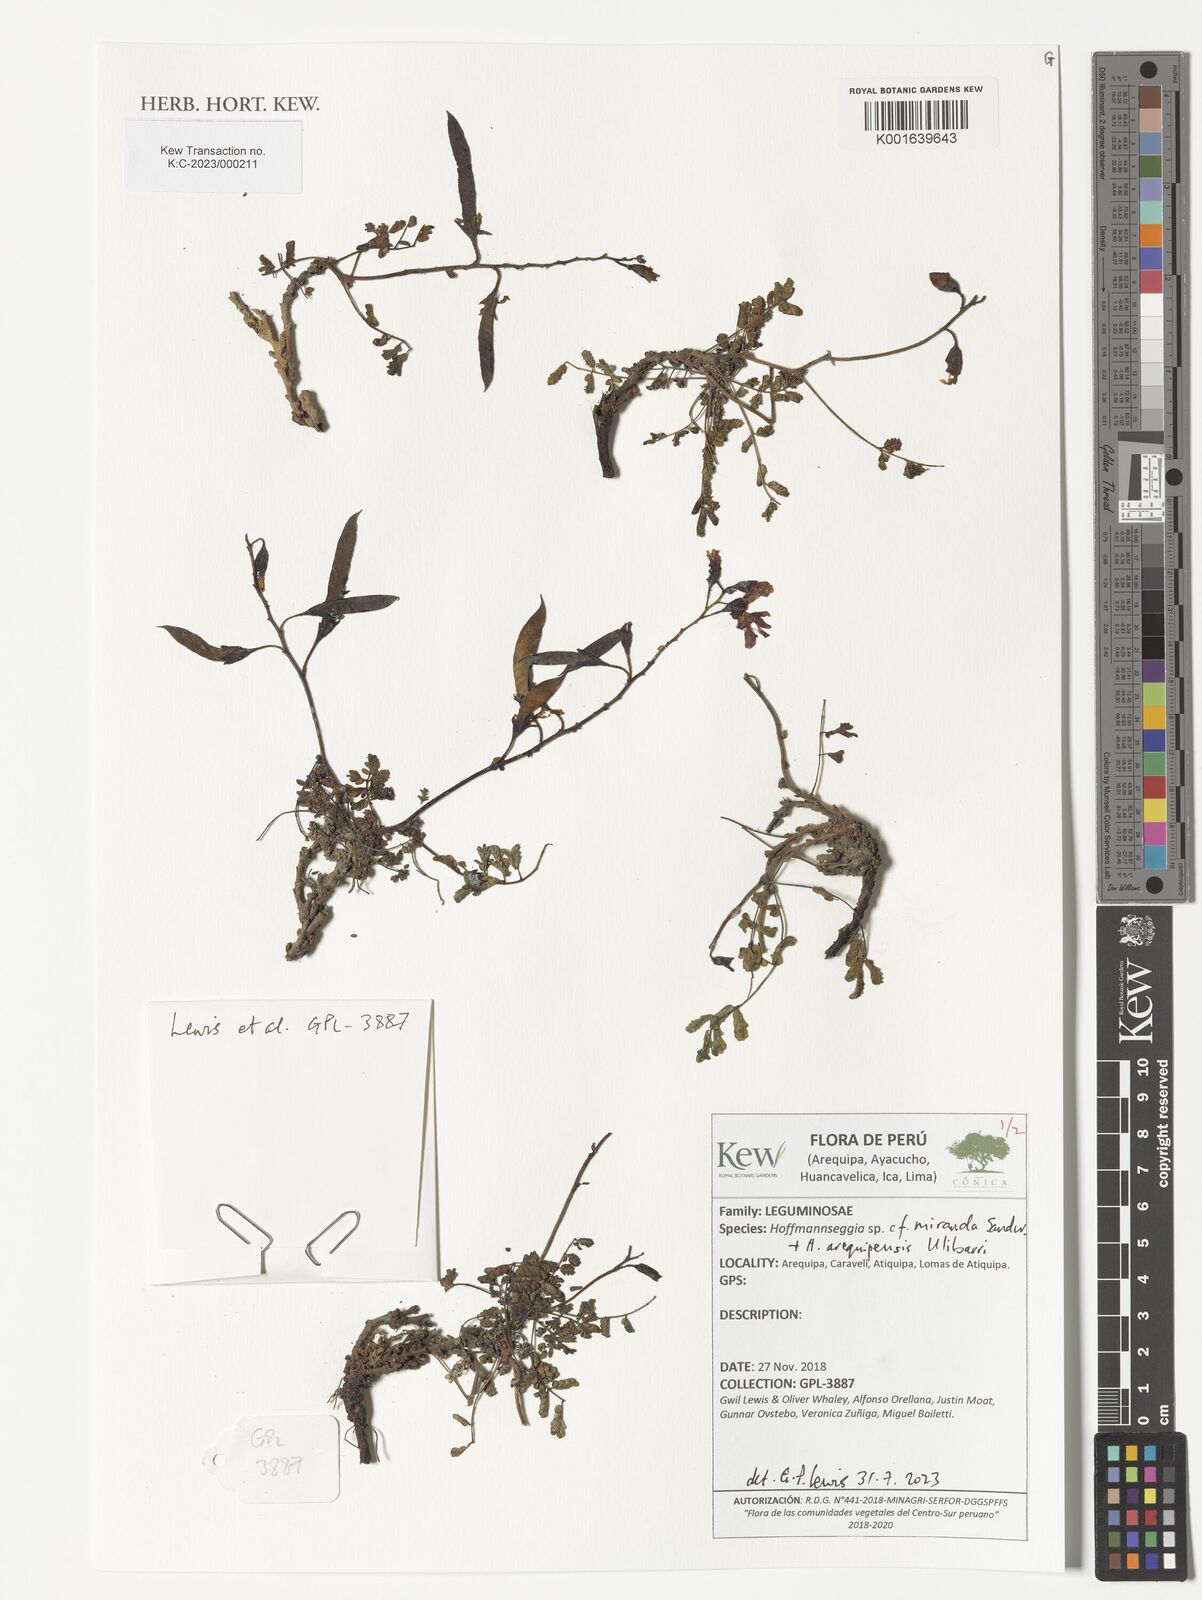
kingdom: Plantae
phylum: Tracheophyta
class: Magnoliopsida
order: Fabales
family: Fabaceae
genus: Hoffmannseggia
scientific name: Hoffmannseggia miranda
